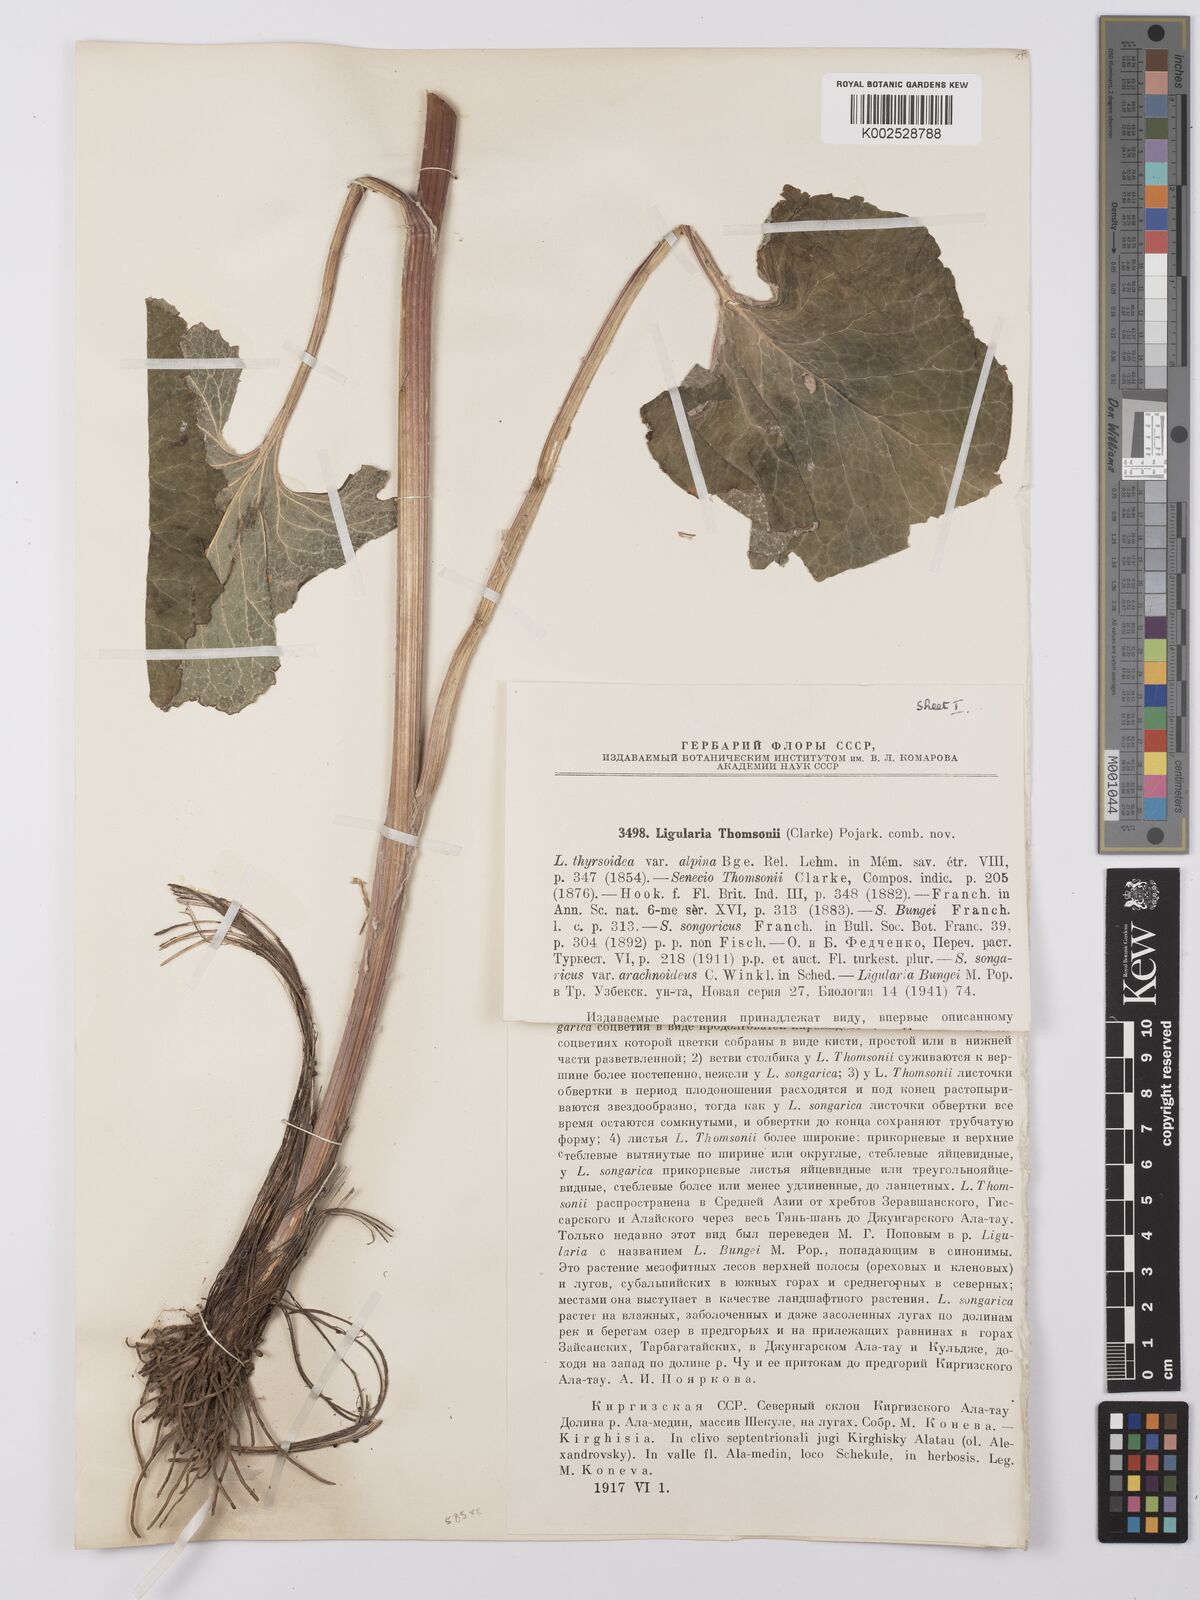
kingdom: Plantae
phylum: Tracheophyta
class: Magnoliopsida
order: Asterales
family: Asteraceae
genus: Vickifunkia
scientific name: Vickifunkia thomsonii
